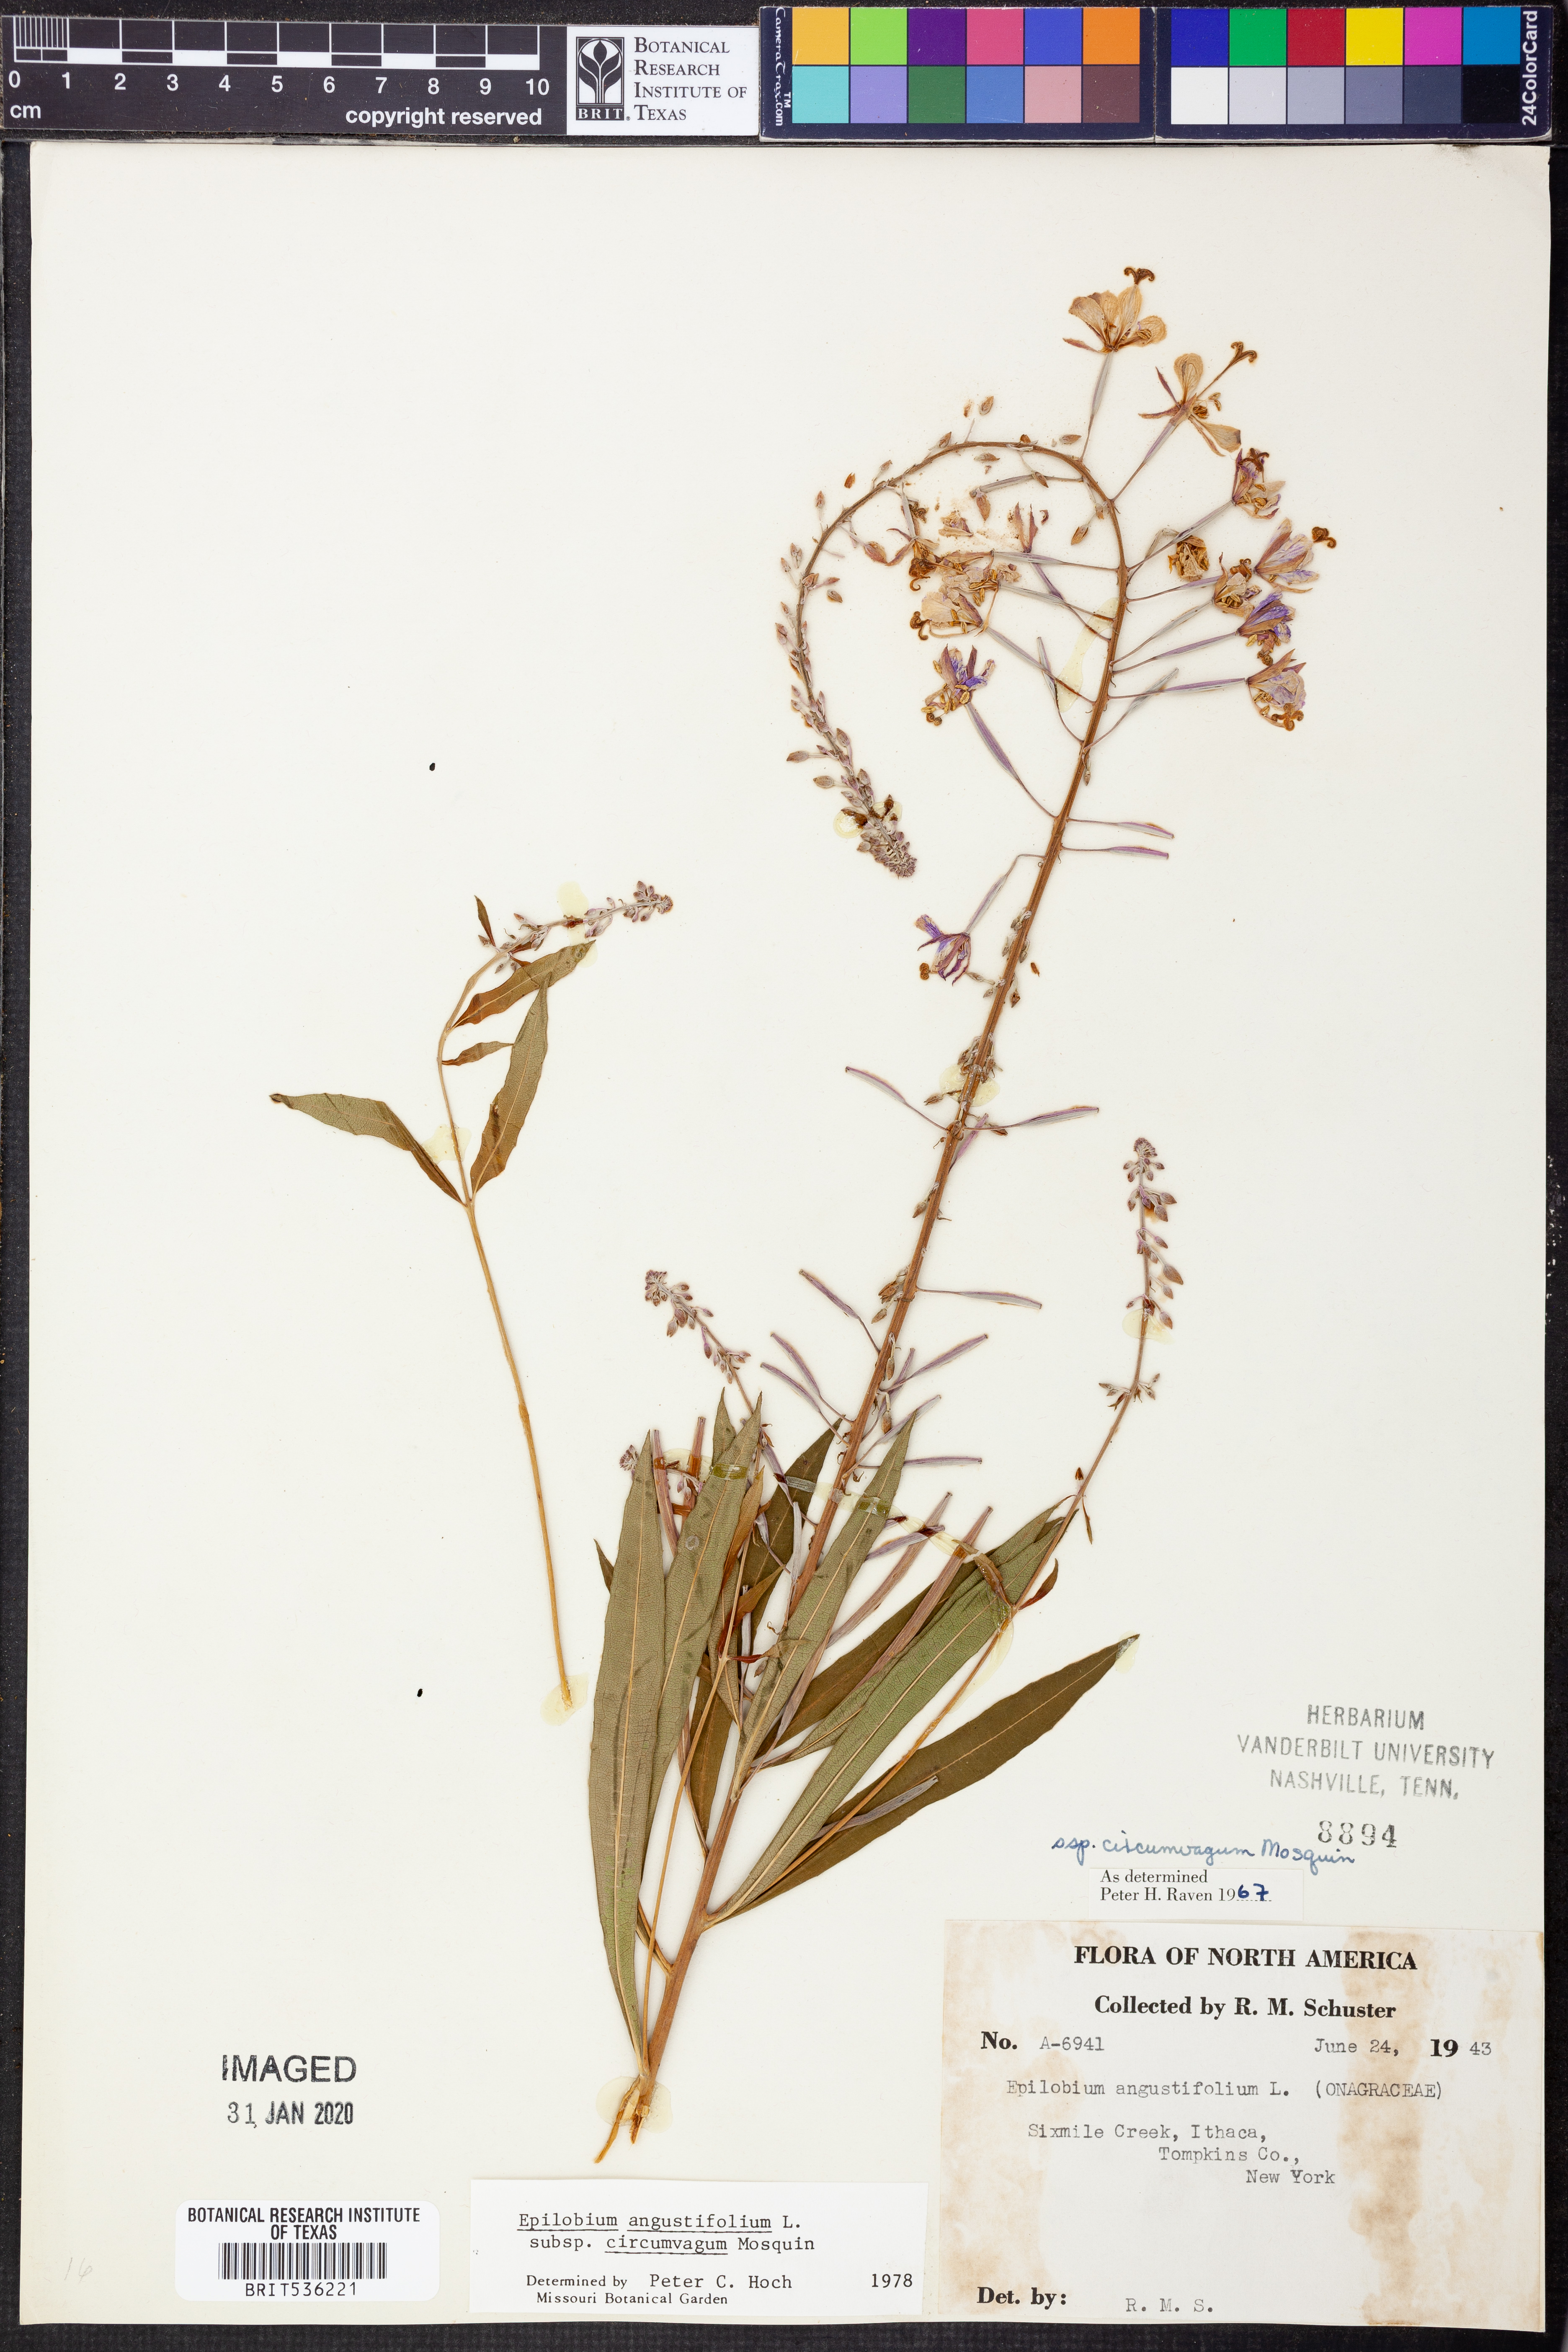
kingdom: Plantae
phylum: Tracheophyta
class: Magnoliopsida
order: Myrtales
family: Onagraceae
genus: Chamaenerion
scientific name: Chamaenerion angustifolium
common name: Fireweed
